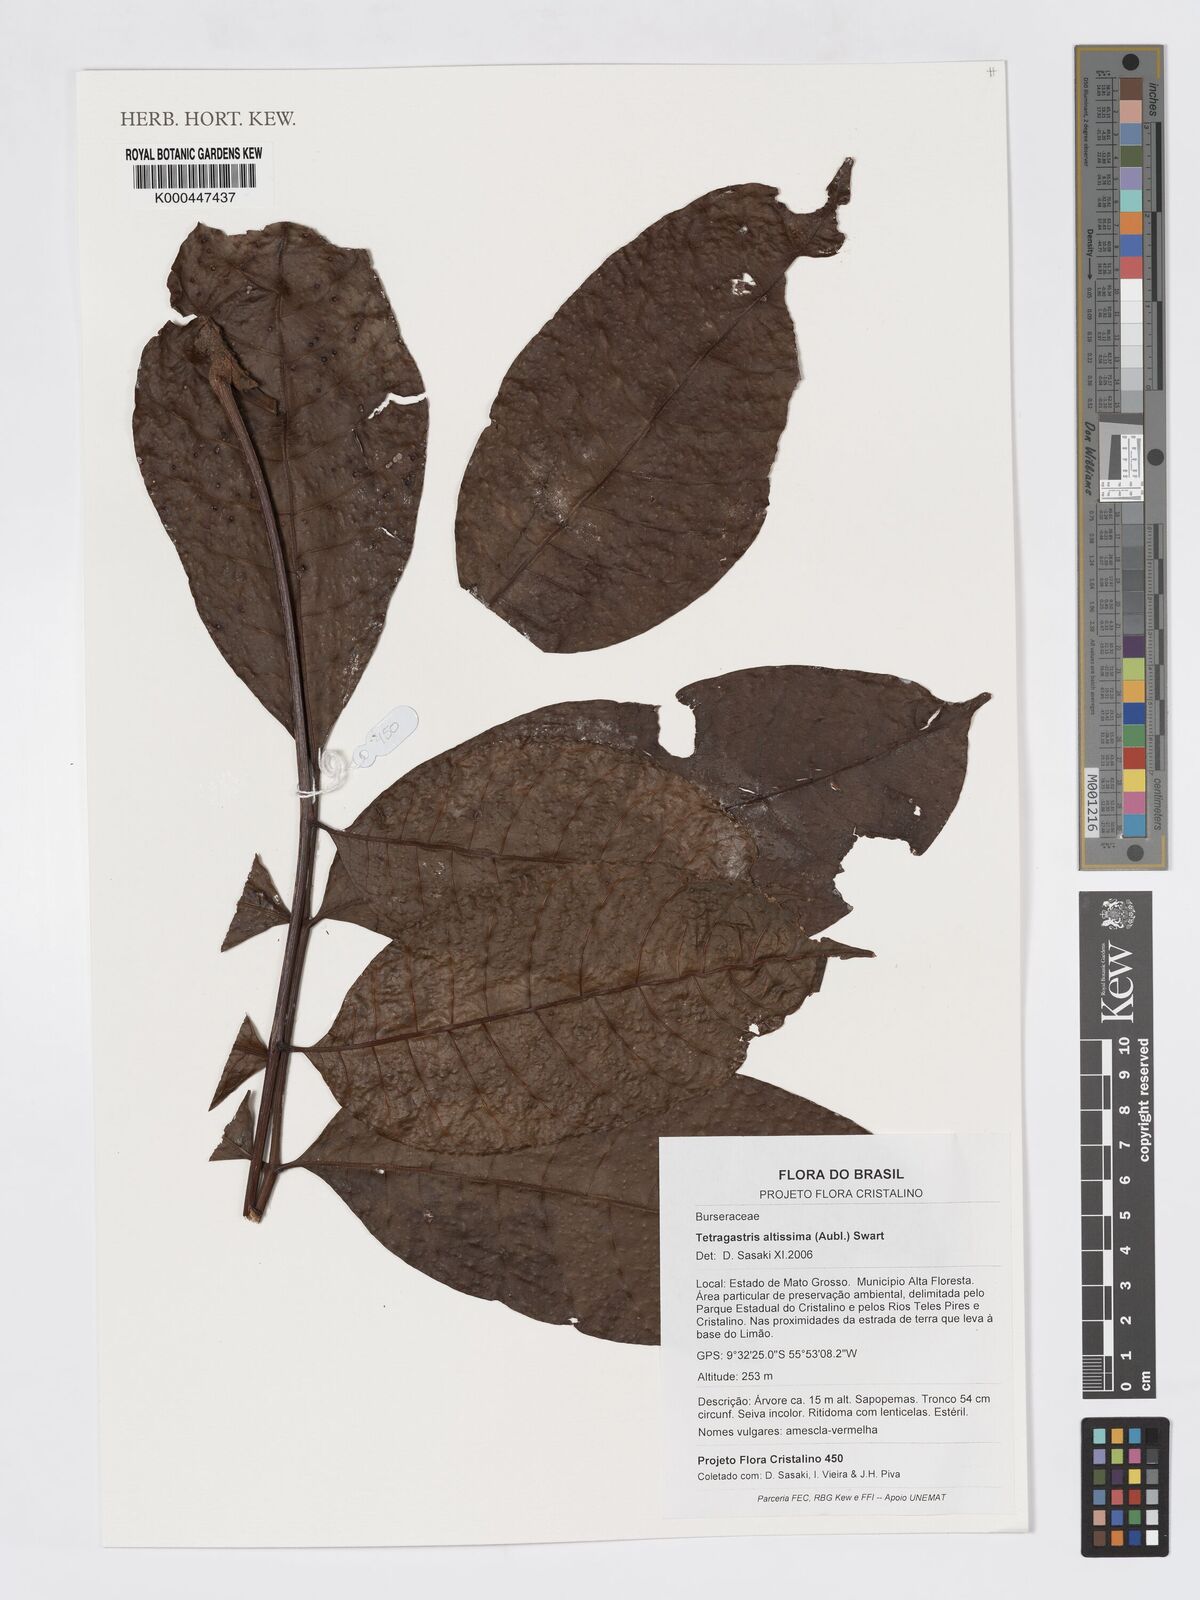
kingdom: Plantae
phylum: Tracheophyta
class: Magnoliopsida
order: Sapindales
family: Burseraceae
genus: Tetragastris
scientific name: Tetragastris altissima
